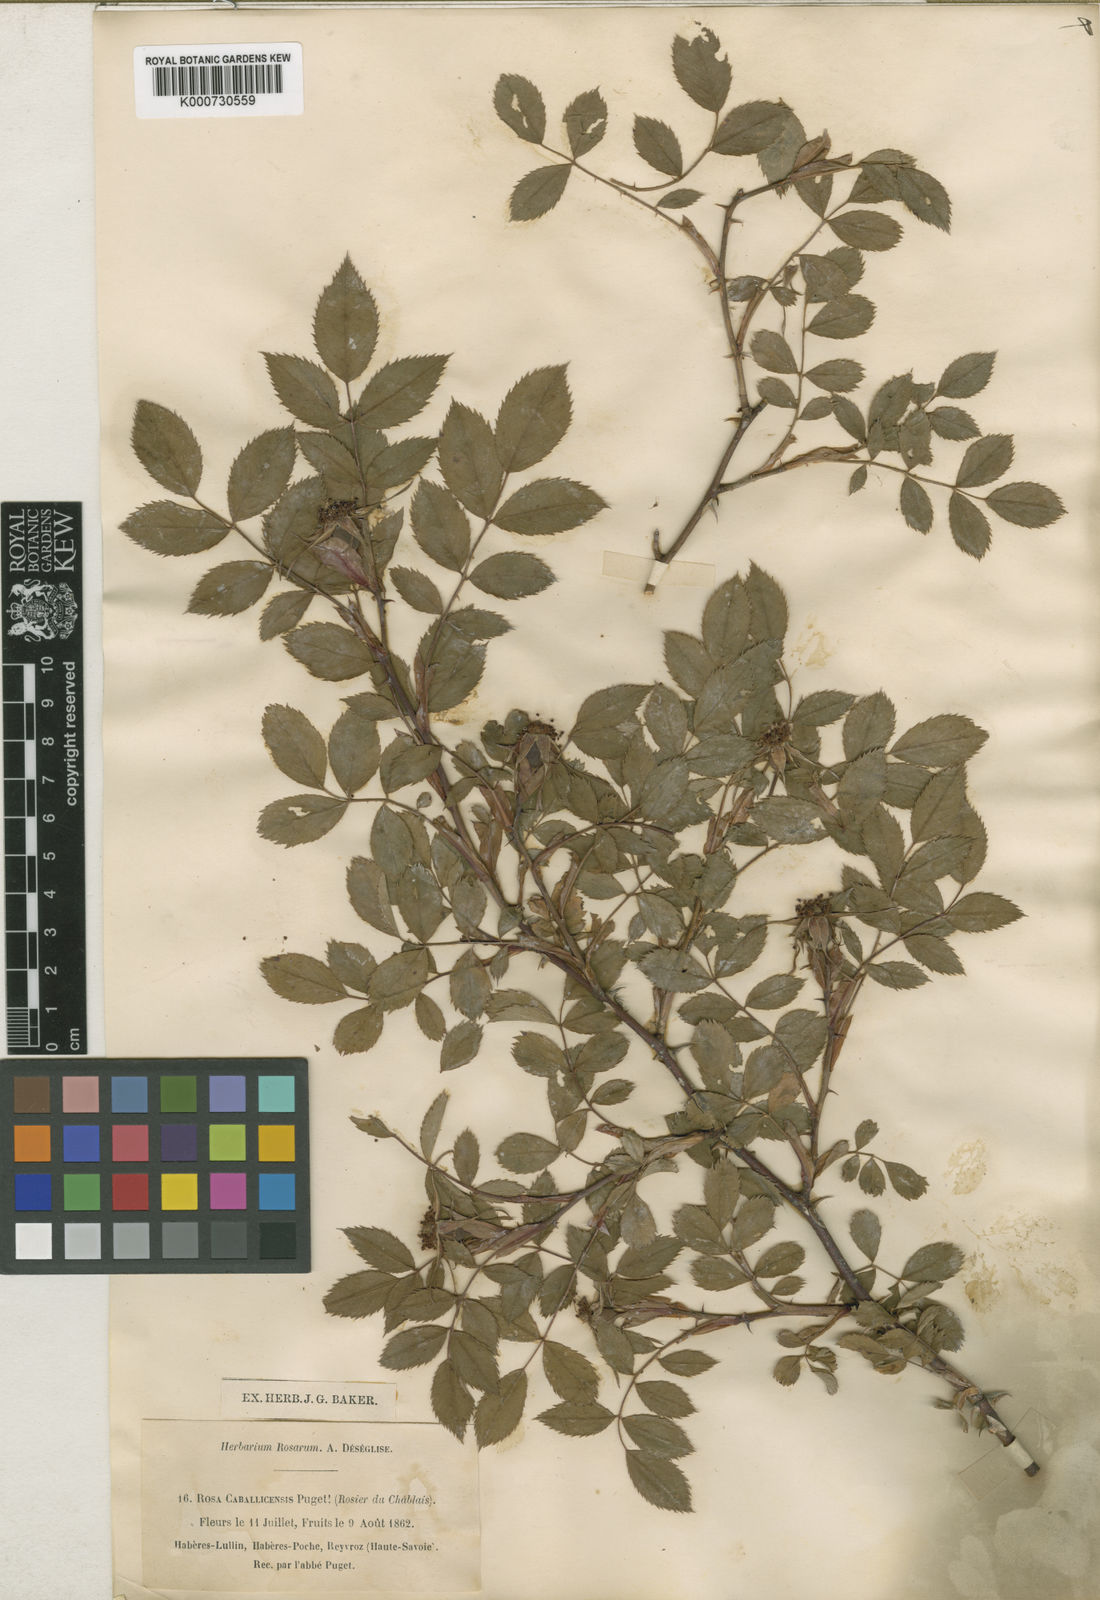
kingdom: Plantae
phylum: Tracheophyta
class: Magnoliopsida
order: Rosales
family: Rosaceae
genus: Rosa
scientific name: Rosa dumalis
